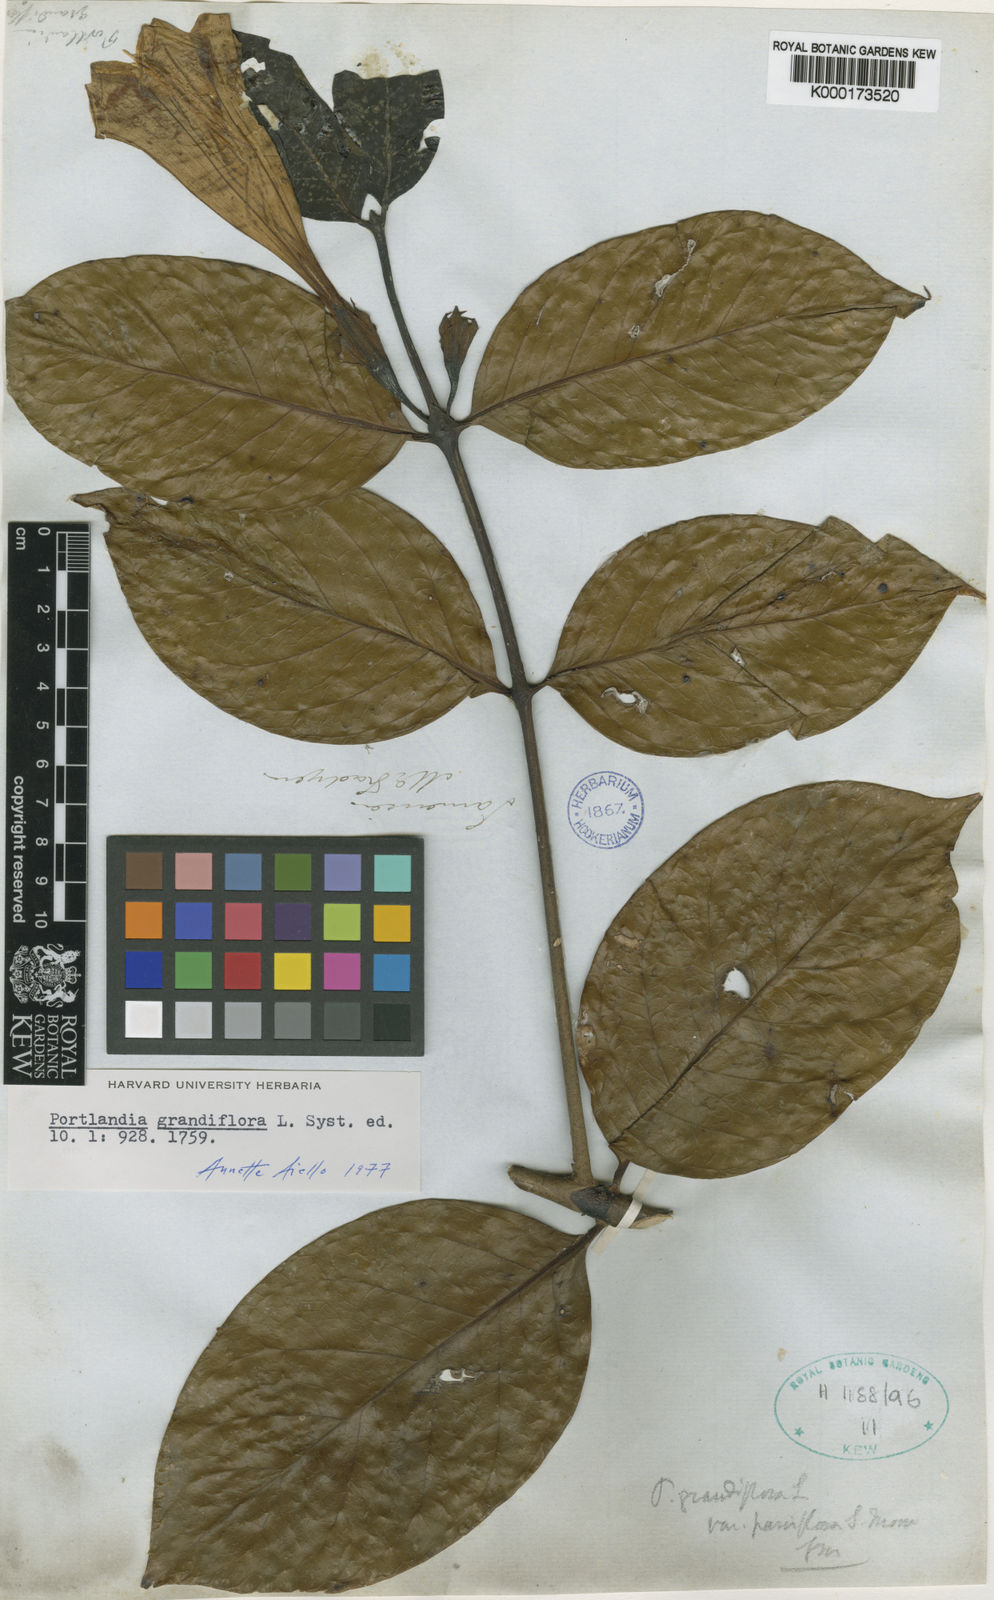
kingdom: Plantae
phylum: Tracheophyta
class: Magnoliopsida
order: Gentianales
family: Rubiaceae
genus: Portlandia
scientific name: Portlandia grandiflora
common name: Bellflower
